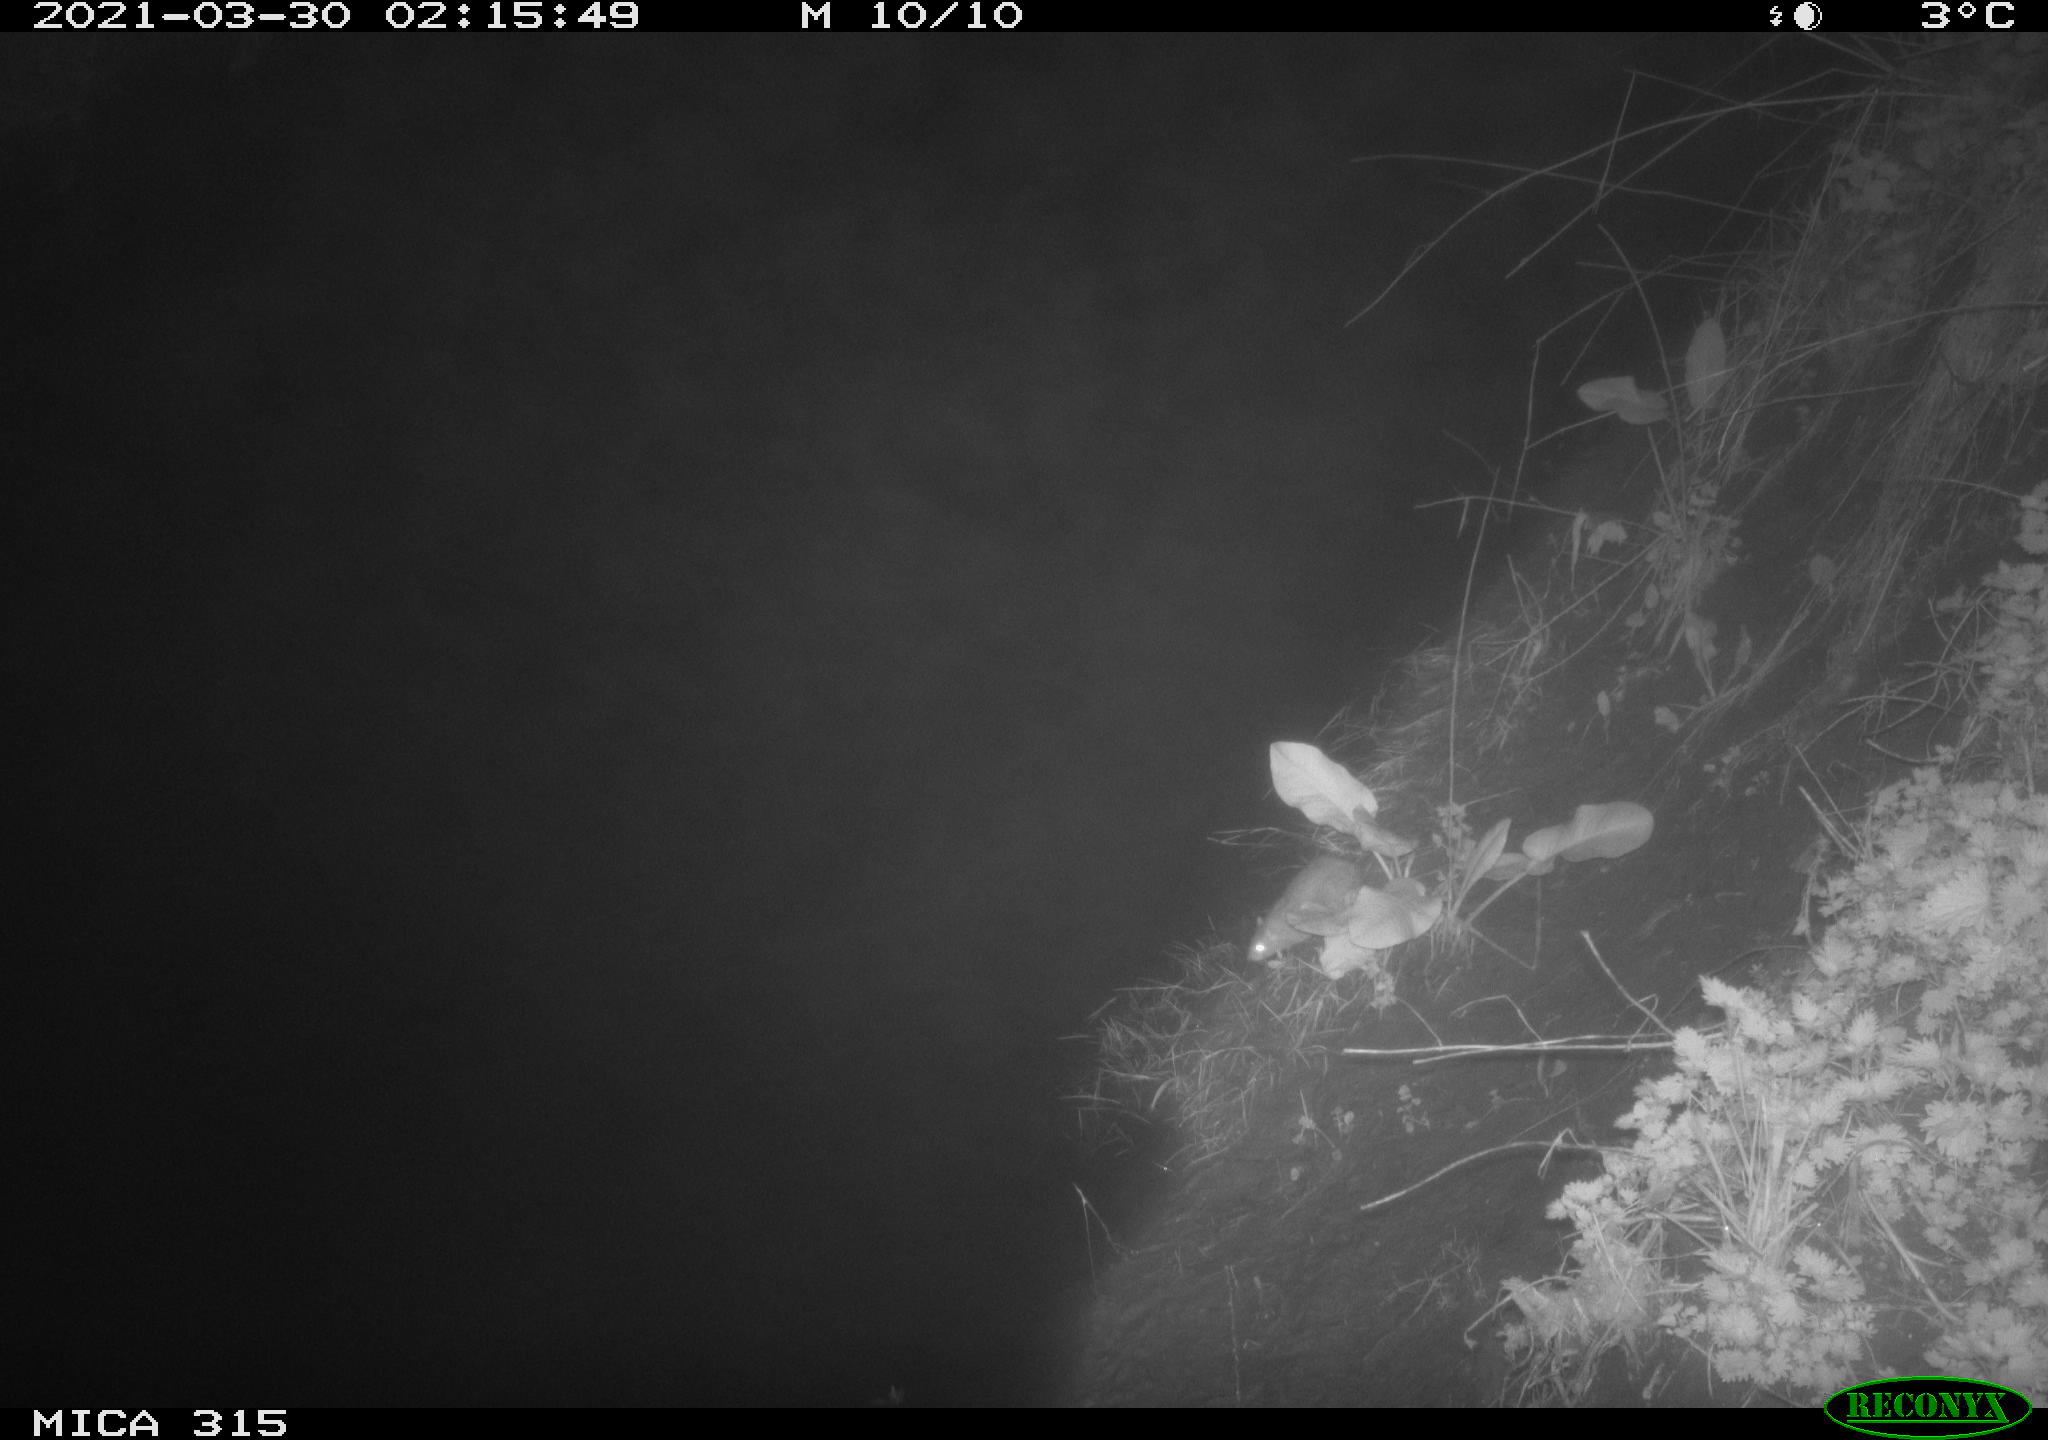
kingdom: Animalia
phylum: Chordata
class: Mammalia
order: Rodentia
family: Muridae
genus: Rattus
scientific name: Rattus norvegicus
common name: Brown rat
